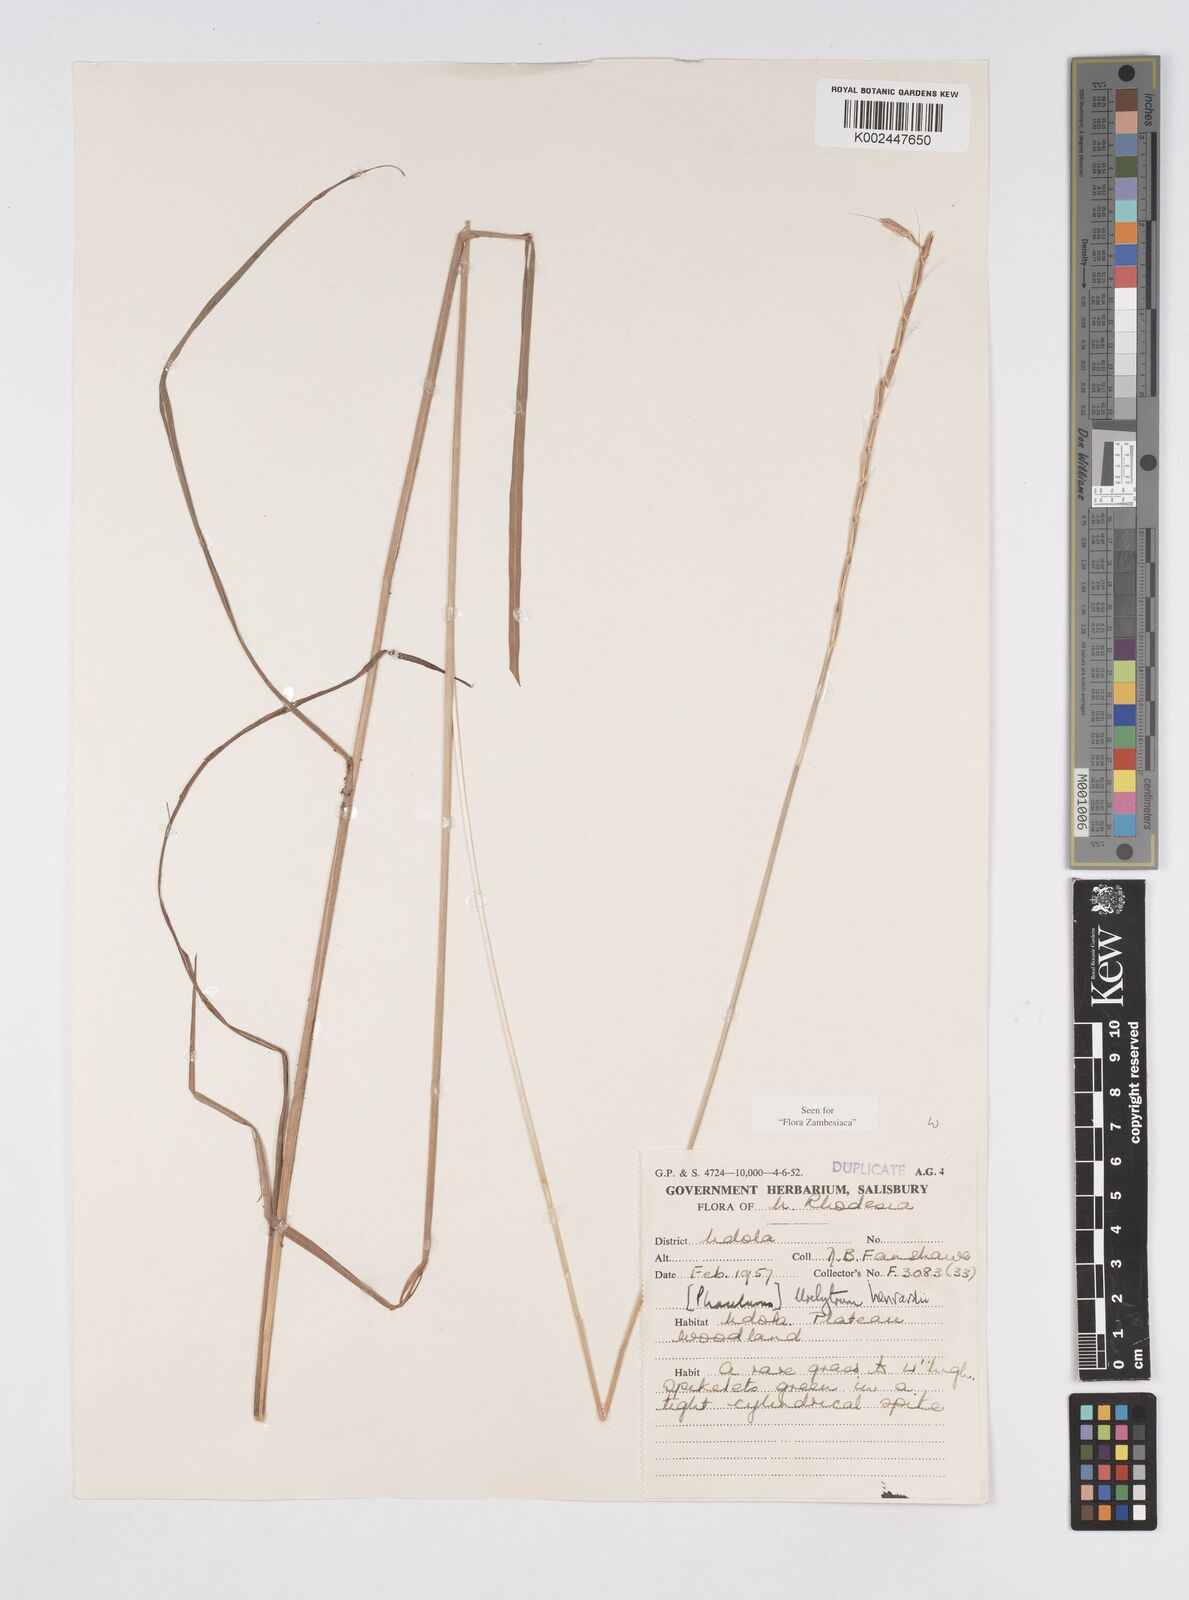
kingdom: Plantae
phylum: Tracheophyta
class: Liliopsida
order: Poales
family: Poaceae
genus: Urelytrum
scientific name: Urelytrum henrardii
